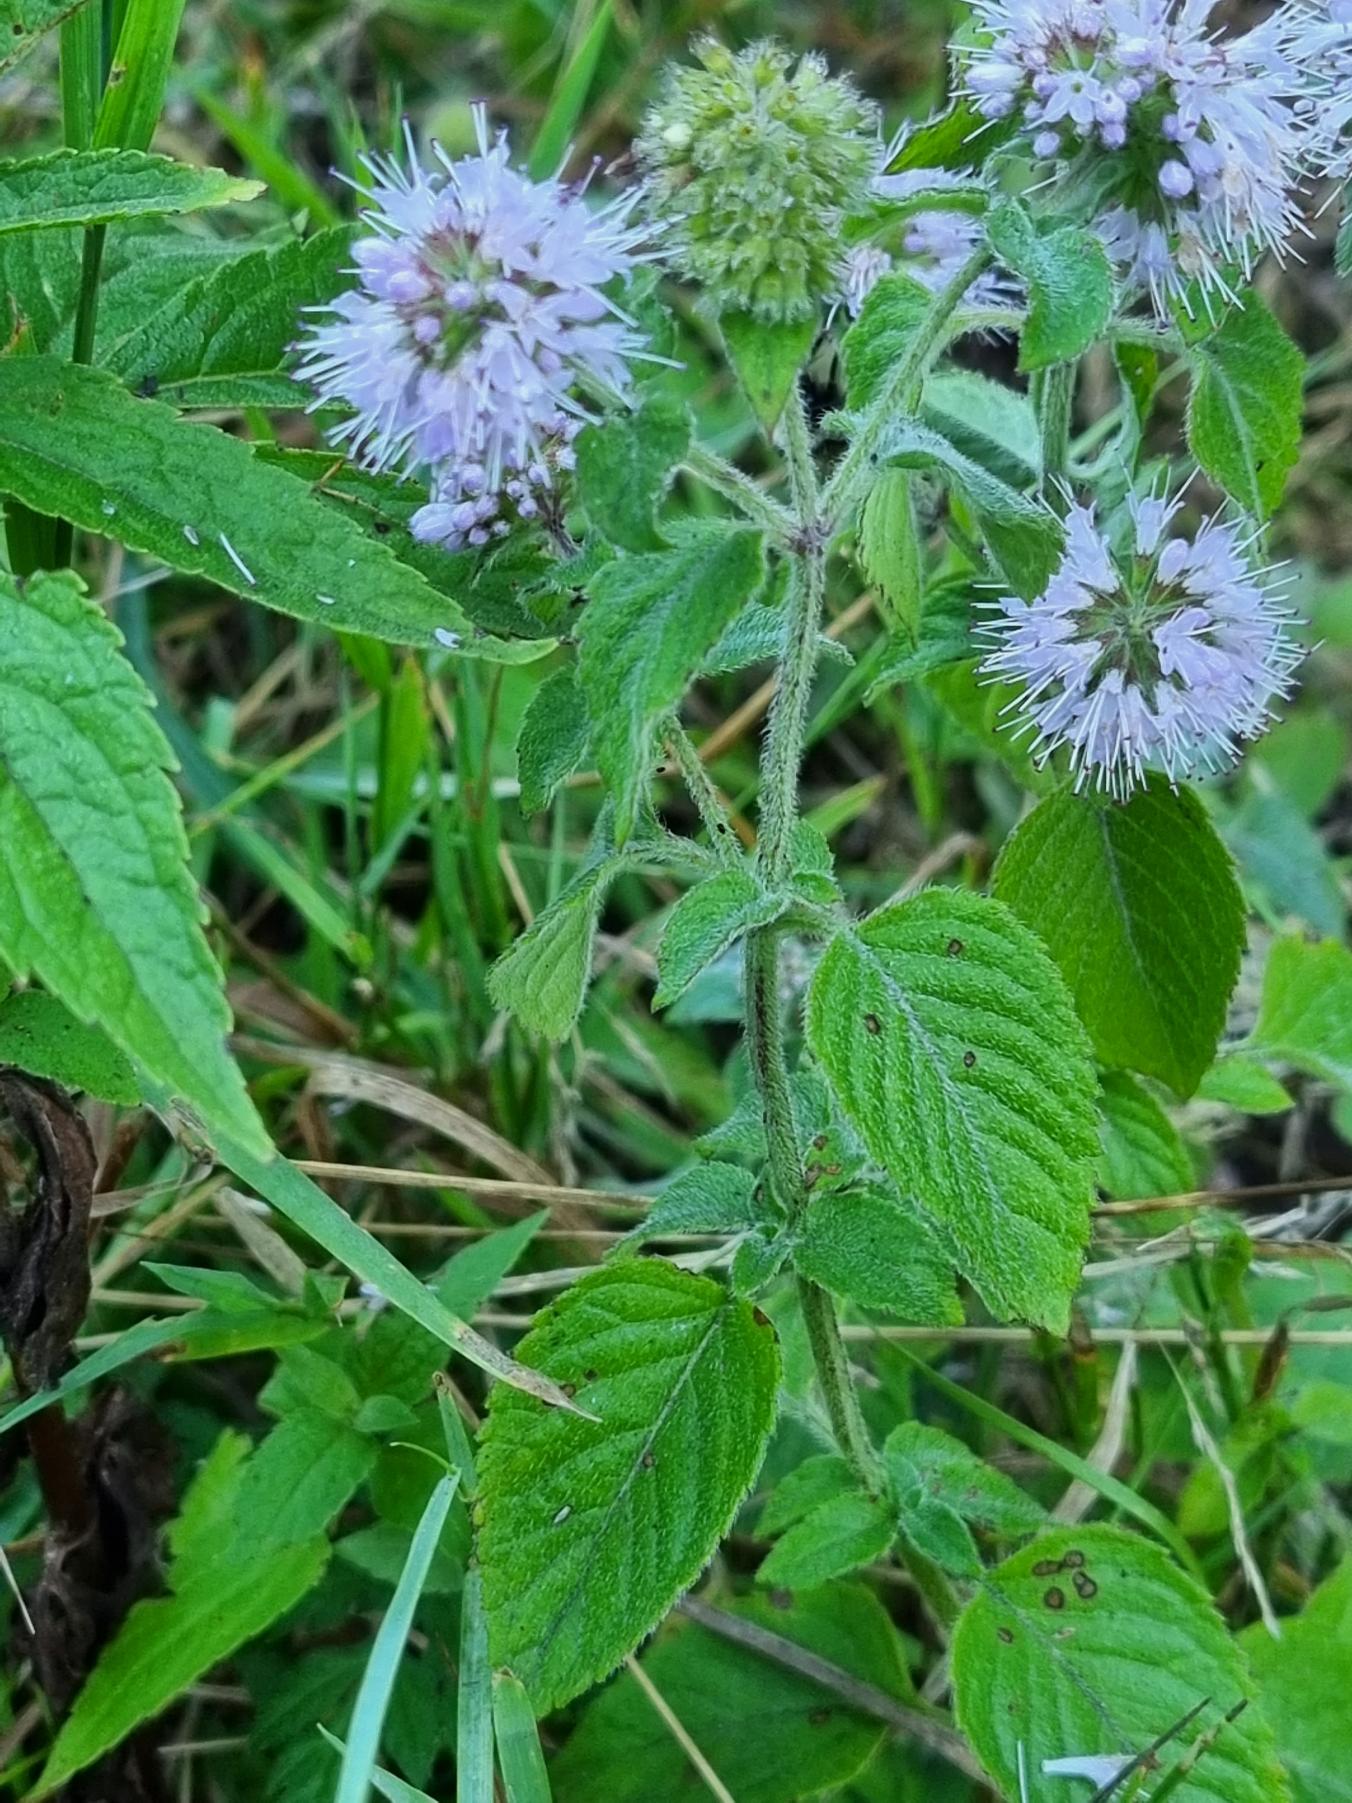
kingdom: Plantae
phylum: Tracheophyta
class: Magnoliopsida
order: Lamiales
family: Lamiaceae
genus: Mentha
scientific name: Mentha aquatica
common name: Vand-mynte
